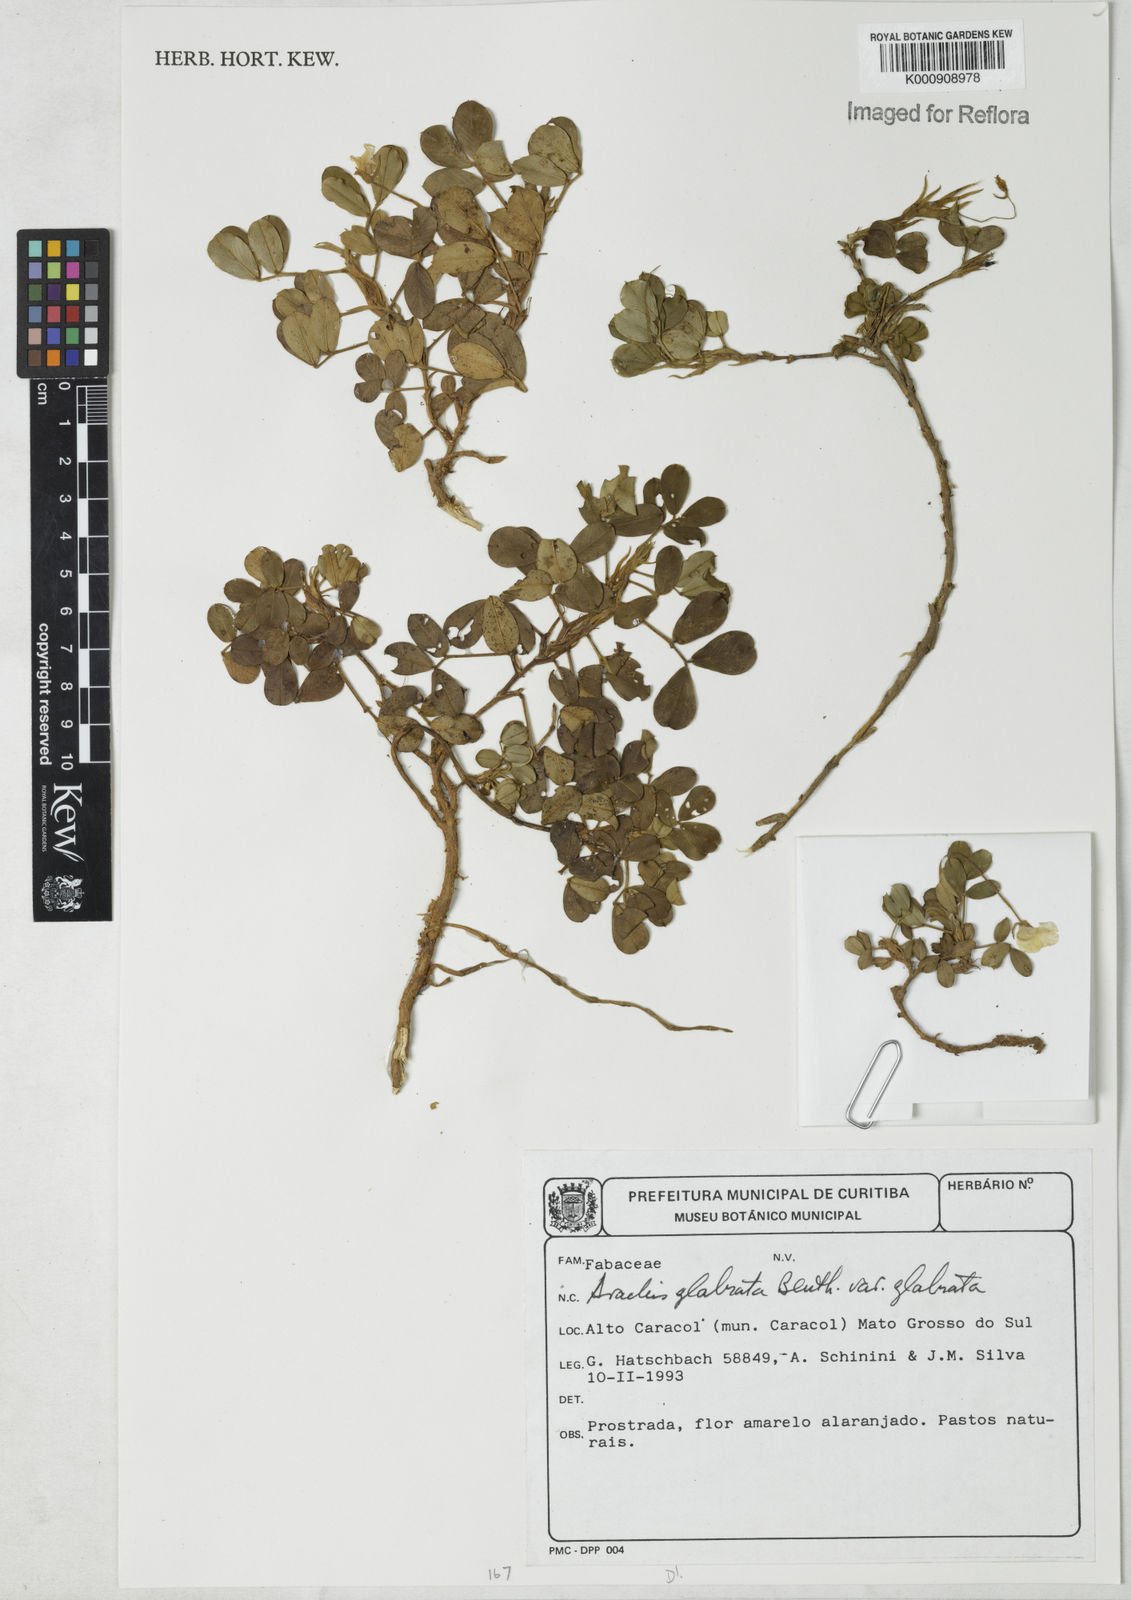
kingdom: Plantae
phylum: Tracheophyta
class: Magnoliopsida
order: Fabales
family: Fabaceae
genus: Arachis
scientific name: Arachis glabrata
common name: Rhizoma peanut
